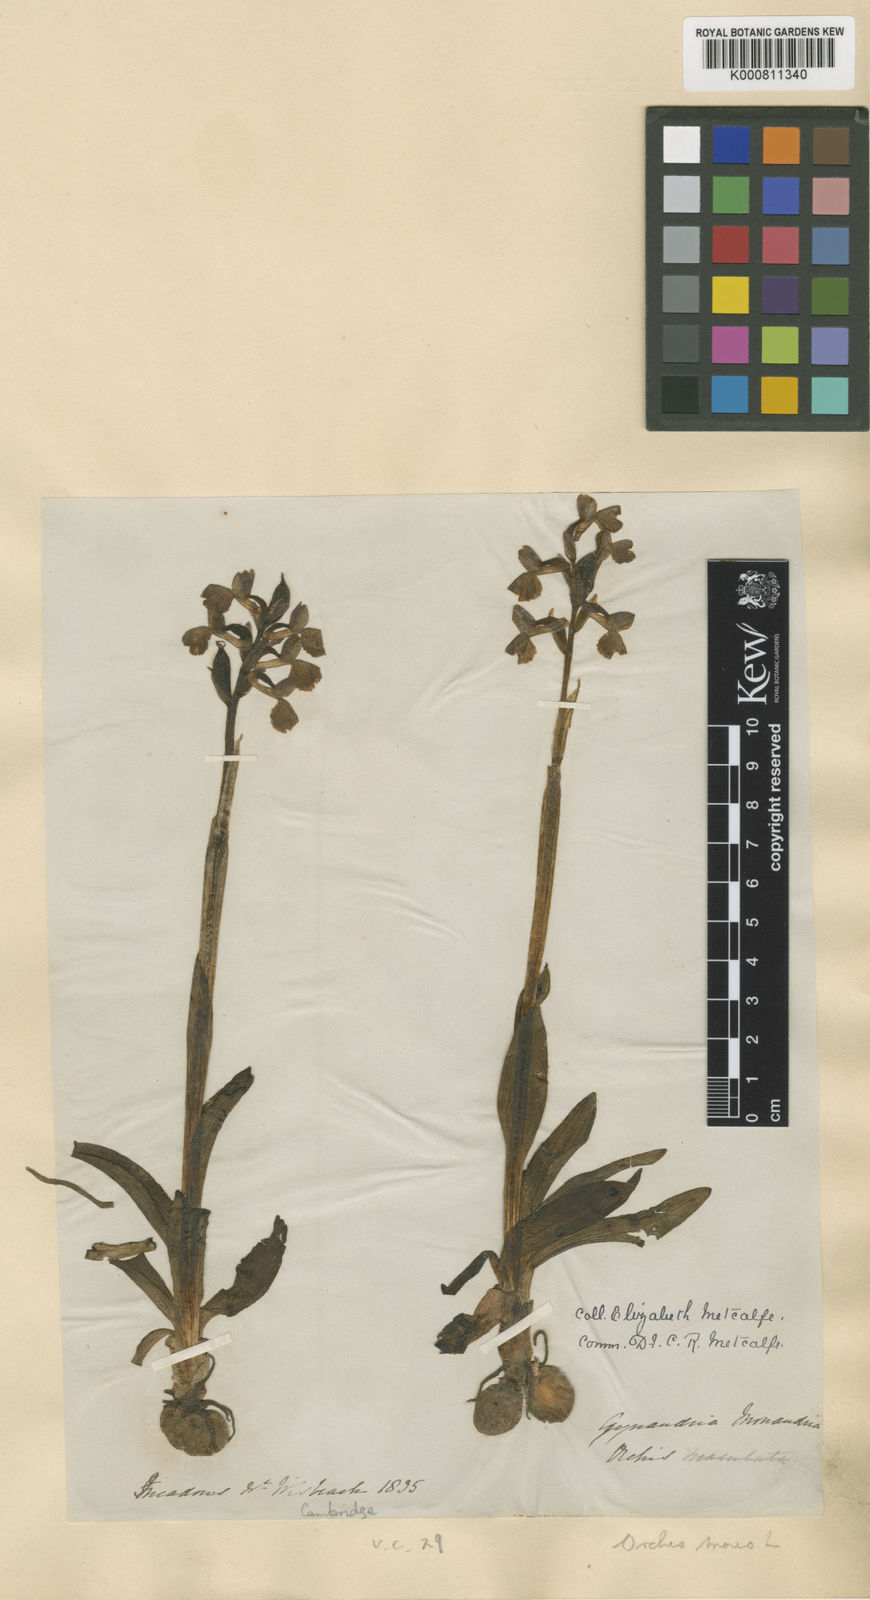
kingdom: Plantae
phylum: Tracheophyta
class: Liliopsida
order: Asparagales
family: Orchidaceae
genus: Anacamptis
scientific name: Anacamptis morio
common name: Green-winged orchid
